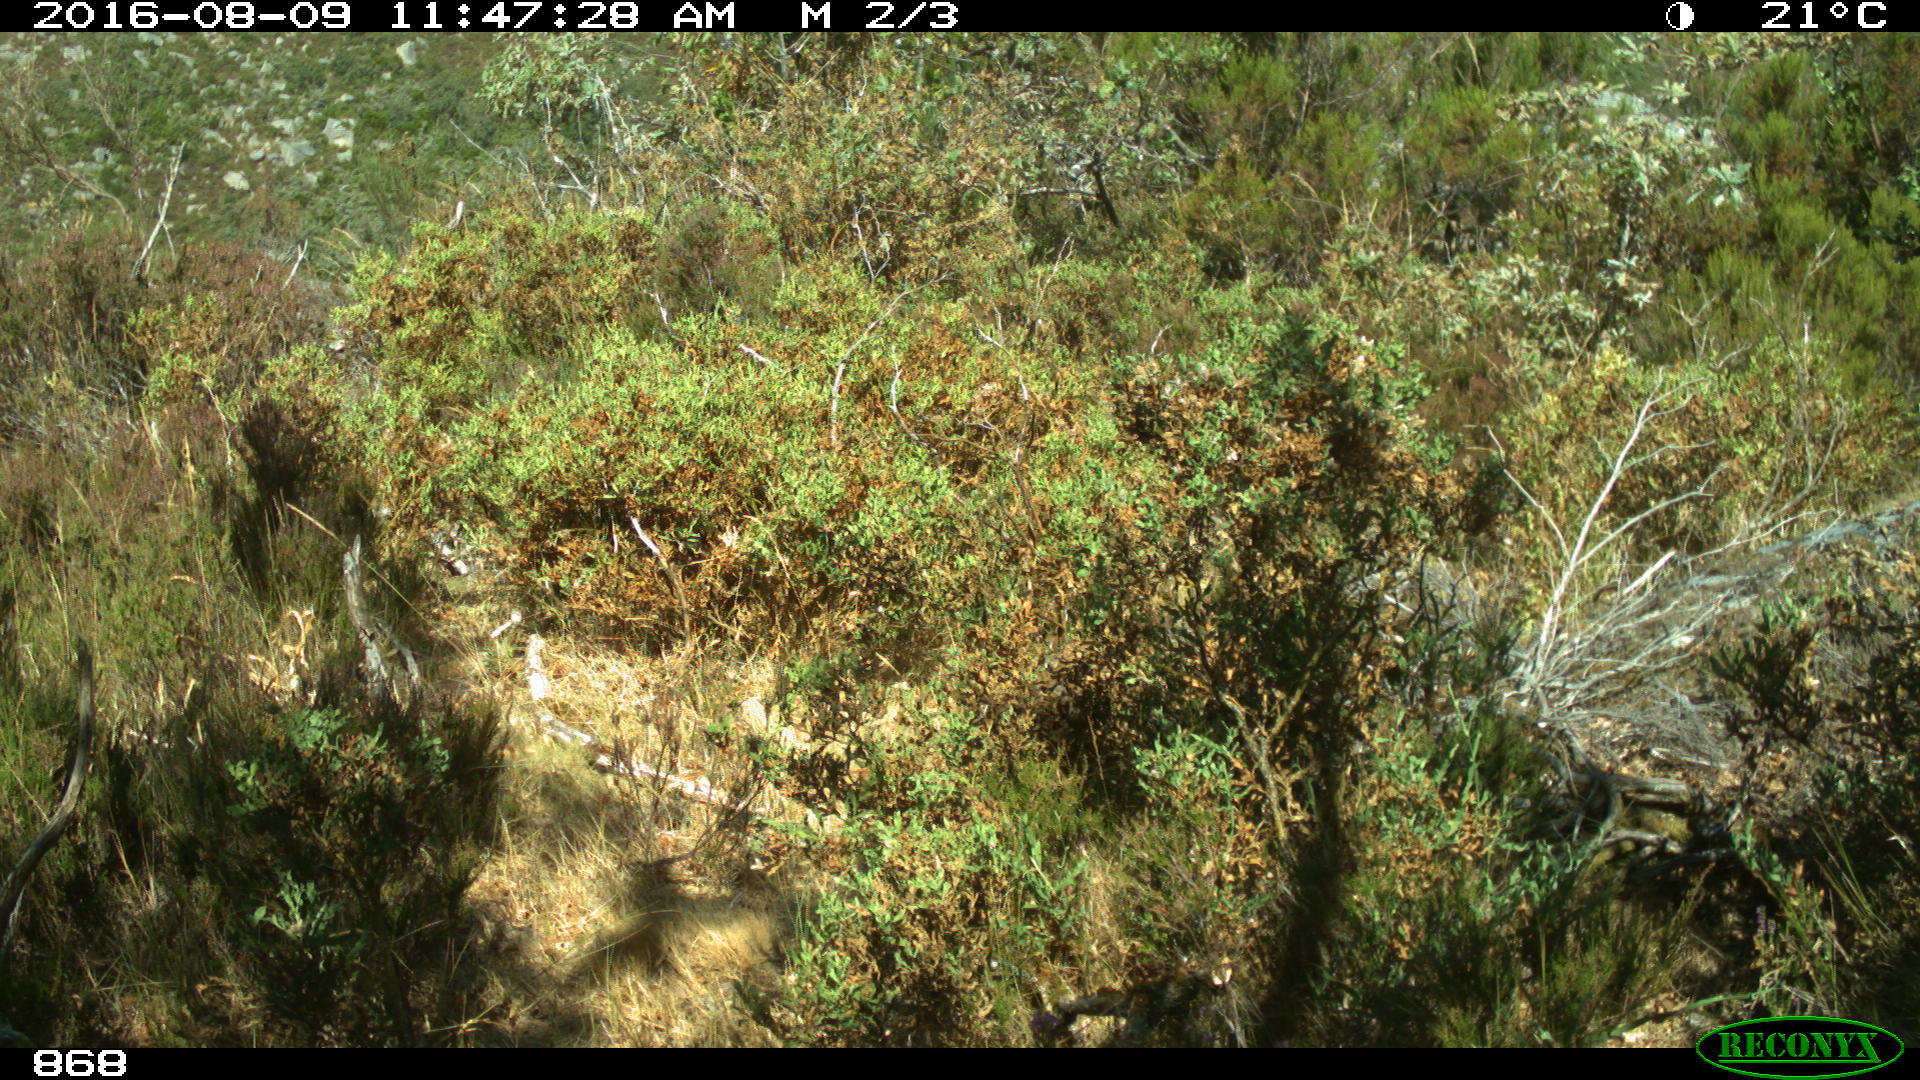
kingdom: Animalia
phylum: Chordata
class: Mammalia
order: Artiodactyla
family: Cervidae
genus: Capreolus
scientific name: Capreolus capreolus
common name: Western roe deer
